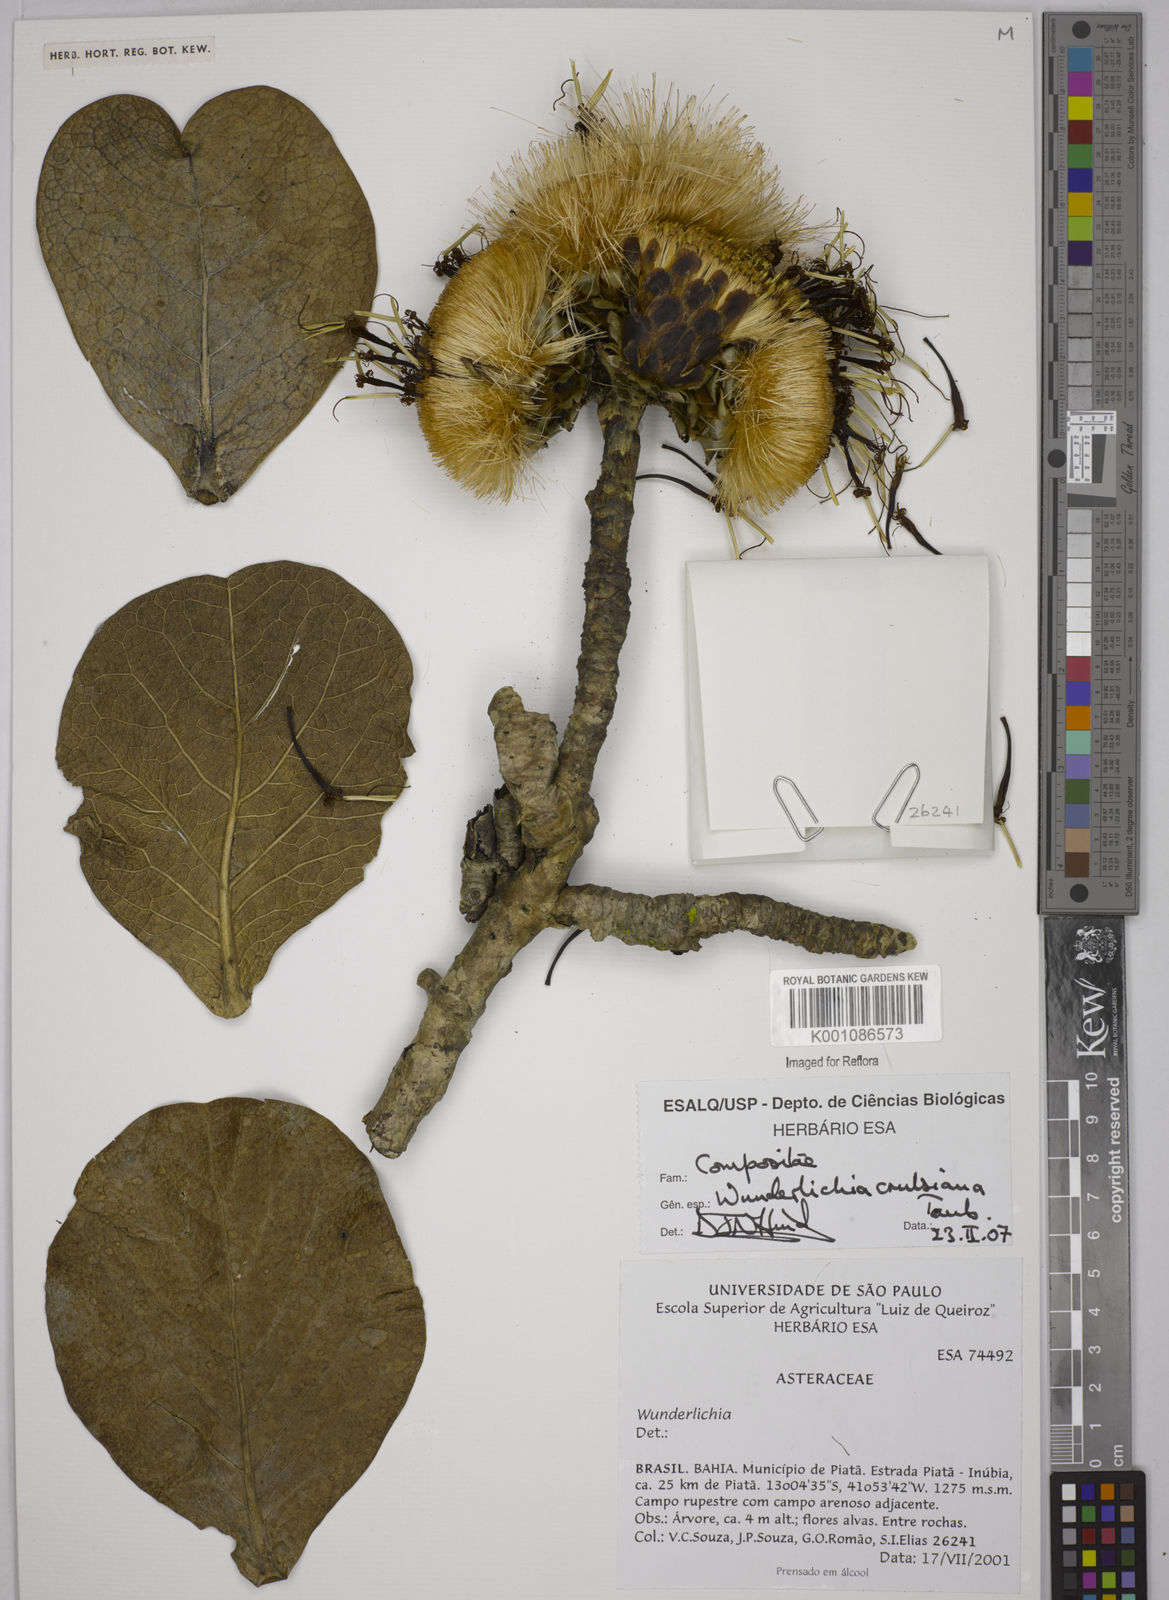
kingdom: Plantae
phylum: Tracheophyta
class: Magnoliopsida
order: Asterales
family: Asteraceae
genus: Wunderlichia
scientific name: Wunderlichia
